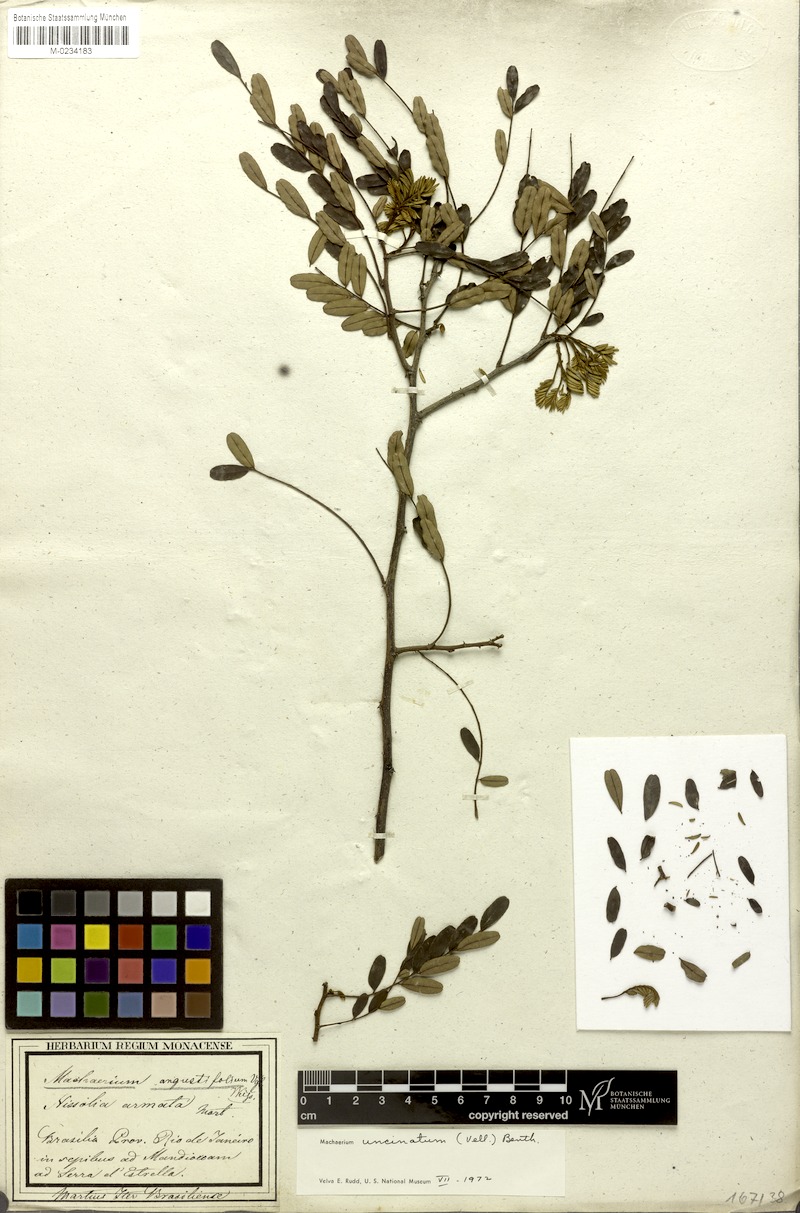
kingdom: Plantae
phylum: Tracheophyta
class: Magnoliopsida
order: Fabales
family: Fabaceae
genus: Machaerium
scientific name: Machaerium uncinatum
